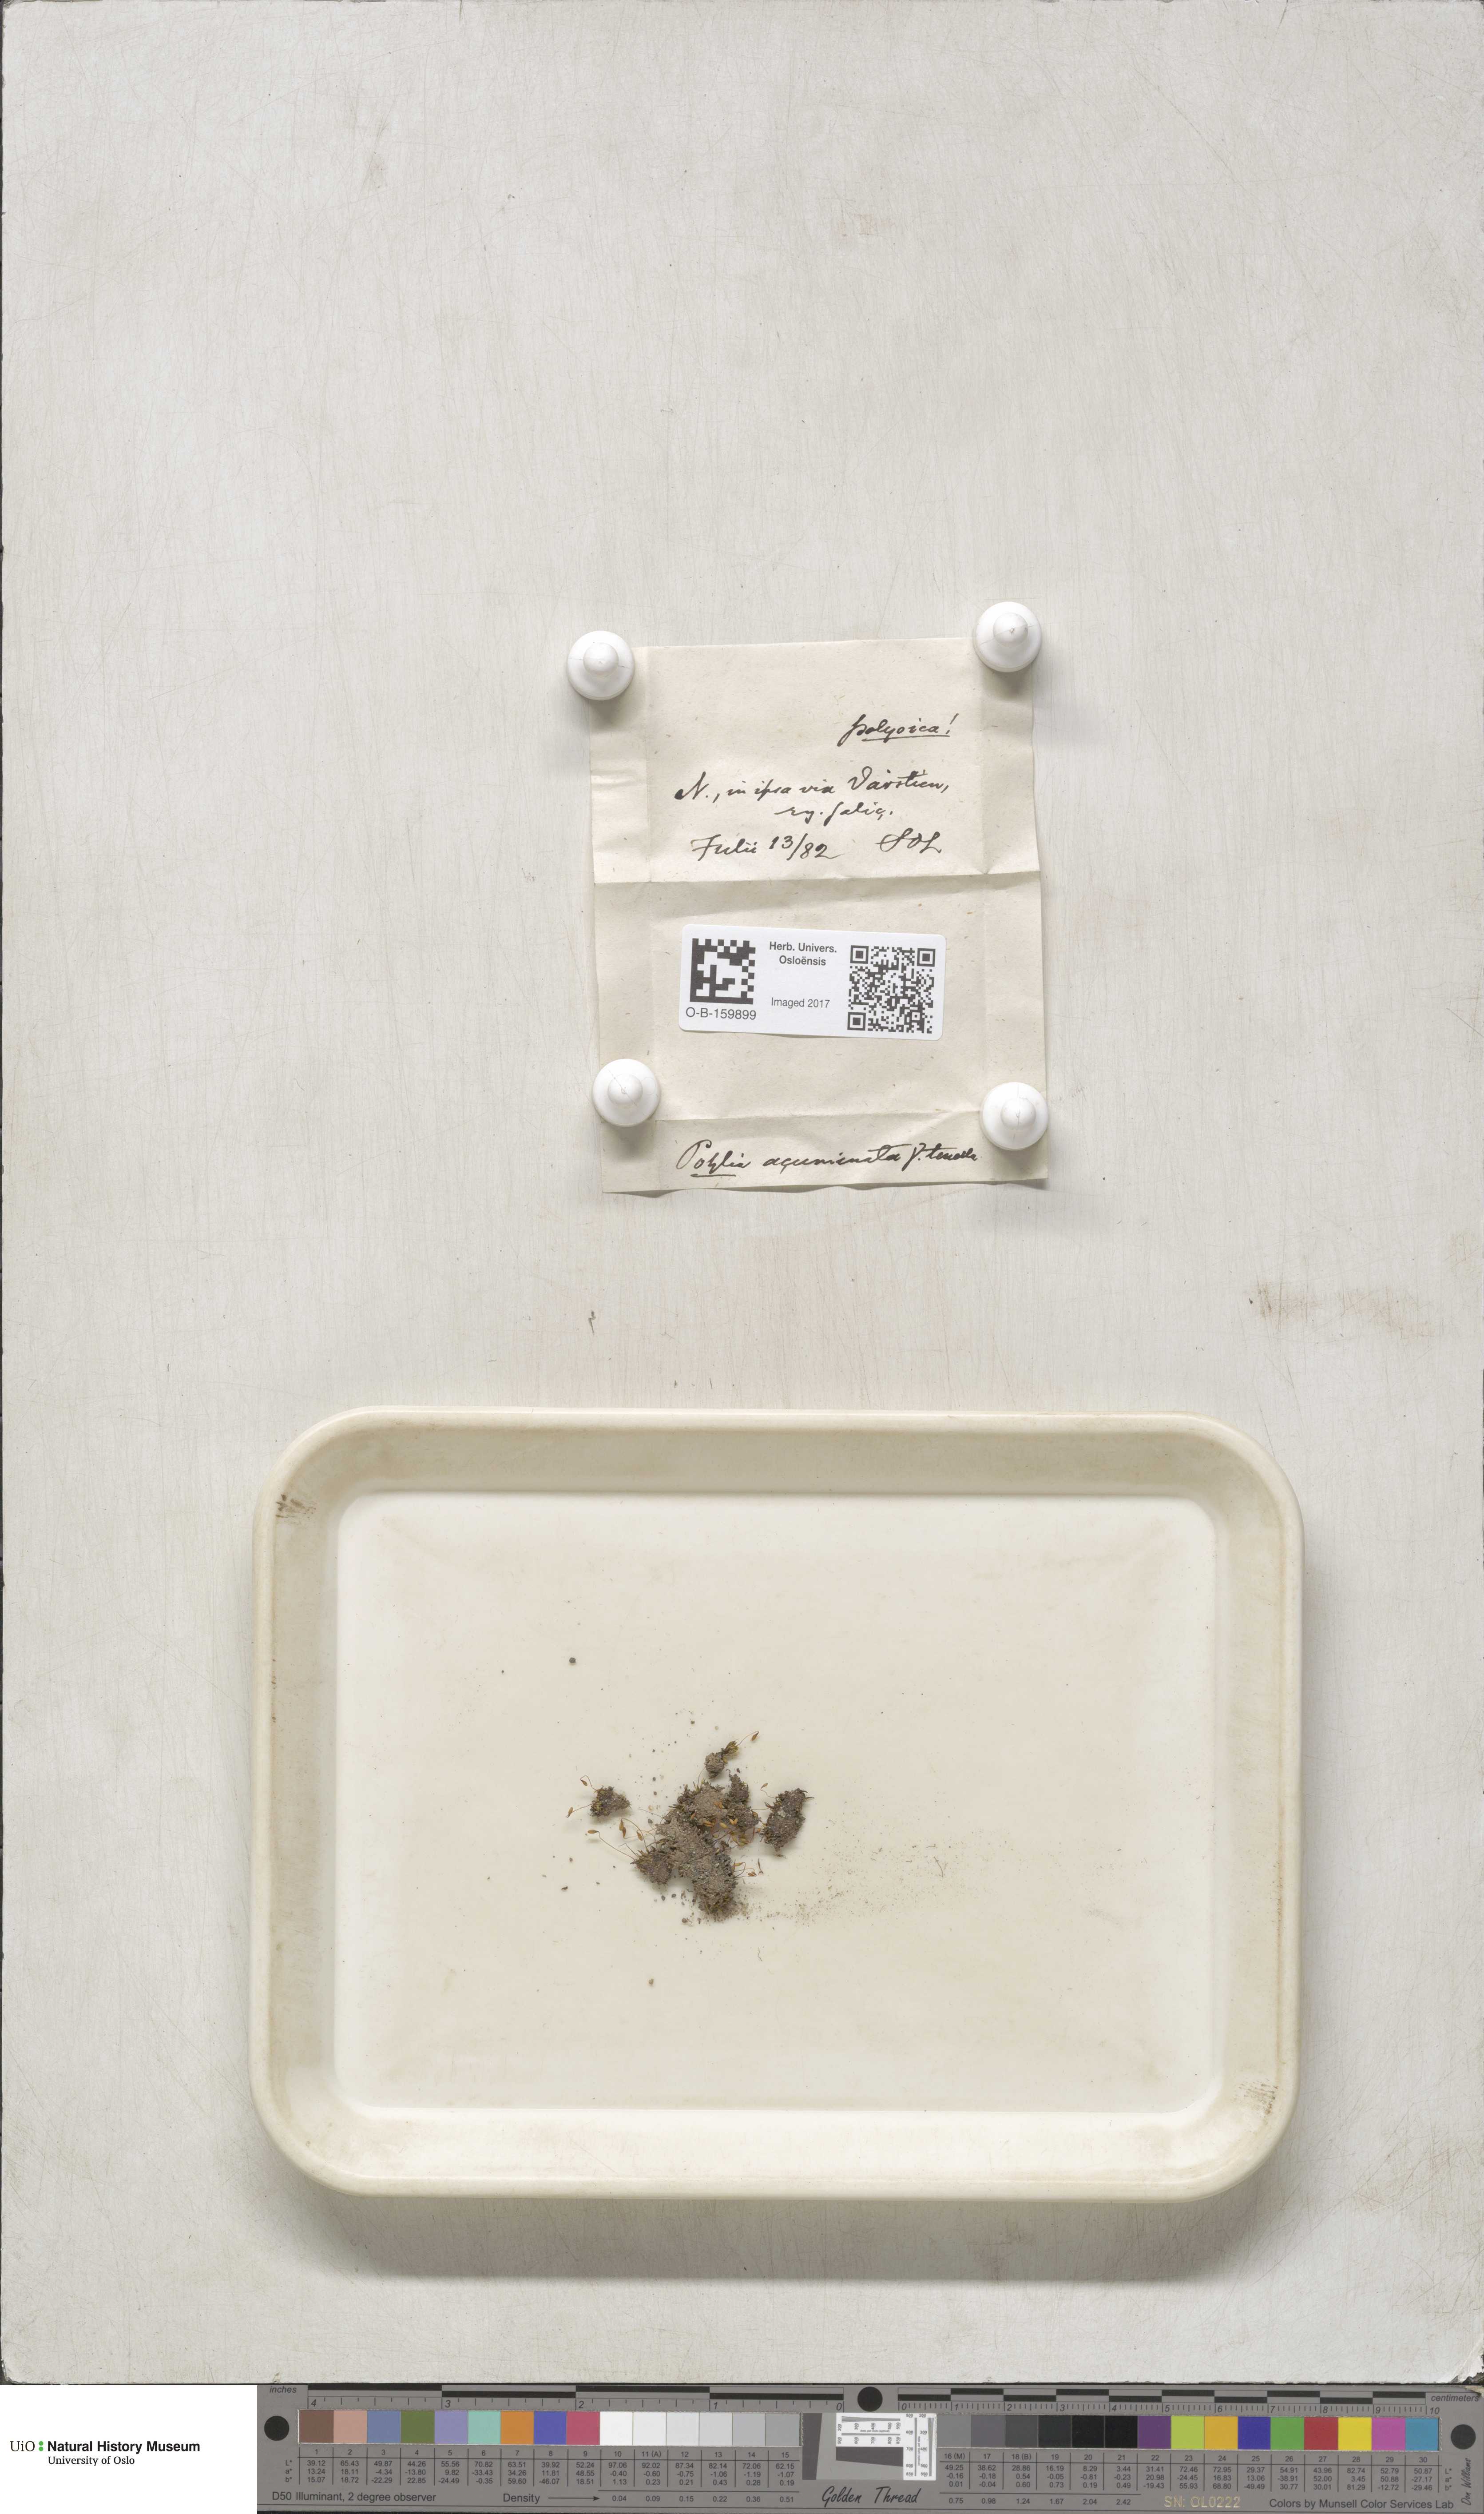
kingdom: Plantae
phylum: Bryophyta
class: Bryopsida
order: Bryales
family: Mniaceae
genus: Pohlia
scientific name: Pohlia elongata
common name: Long-fruited thread-moss
